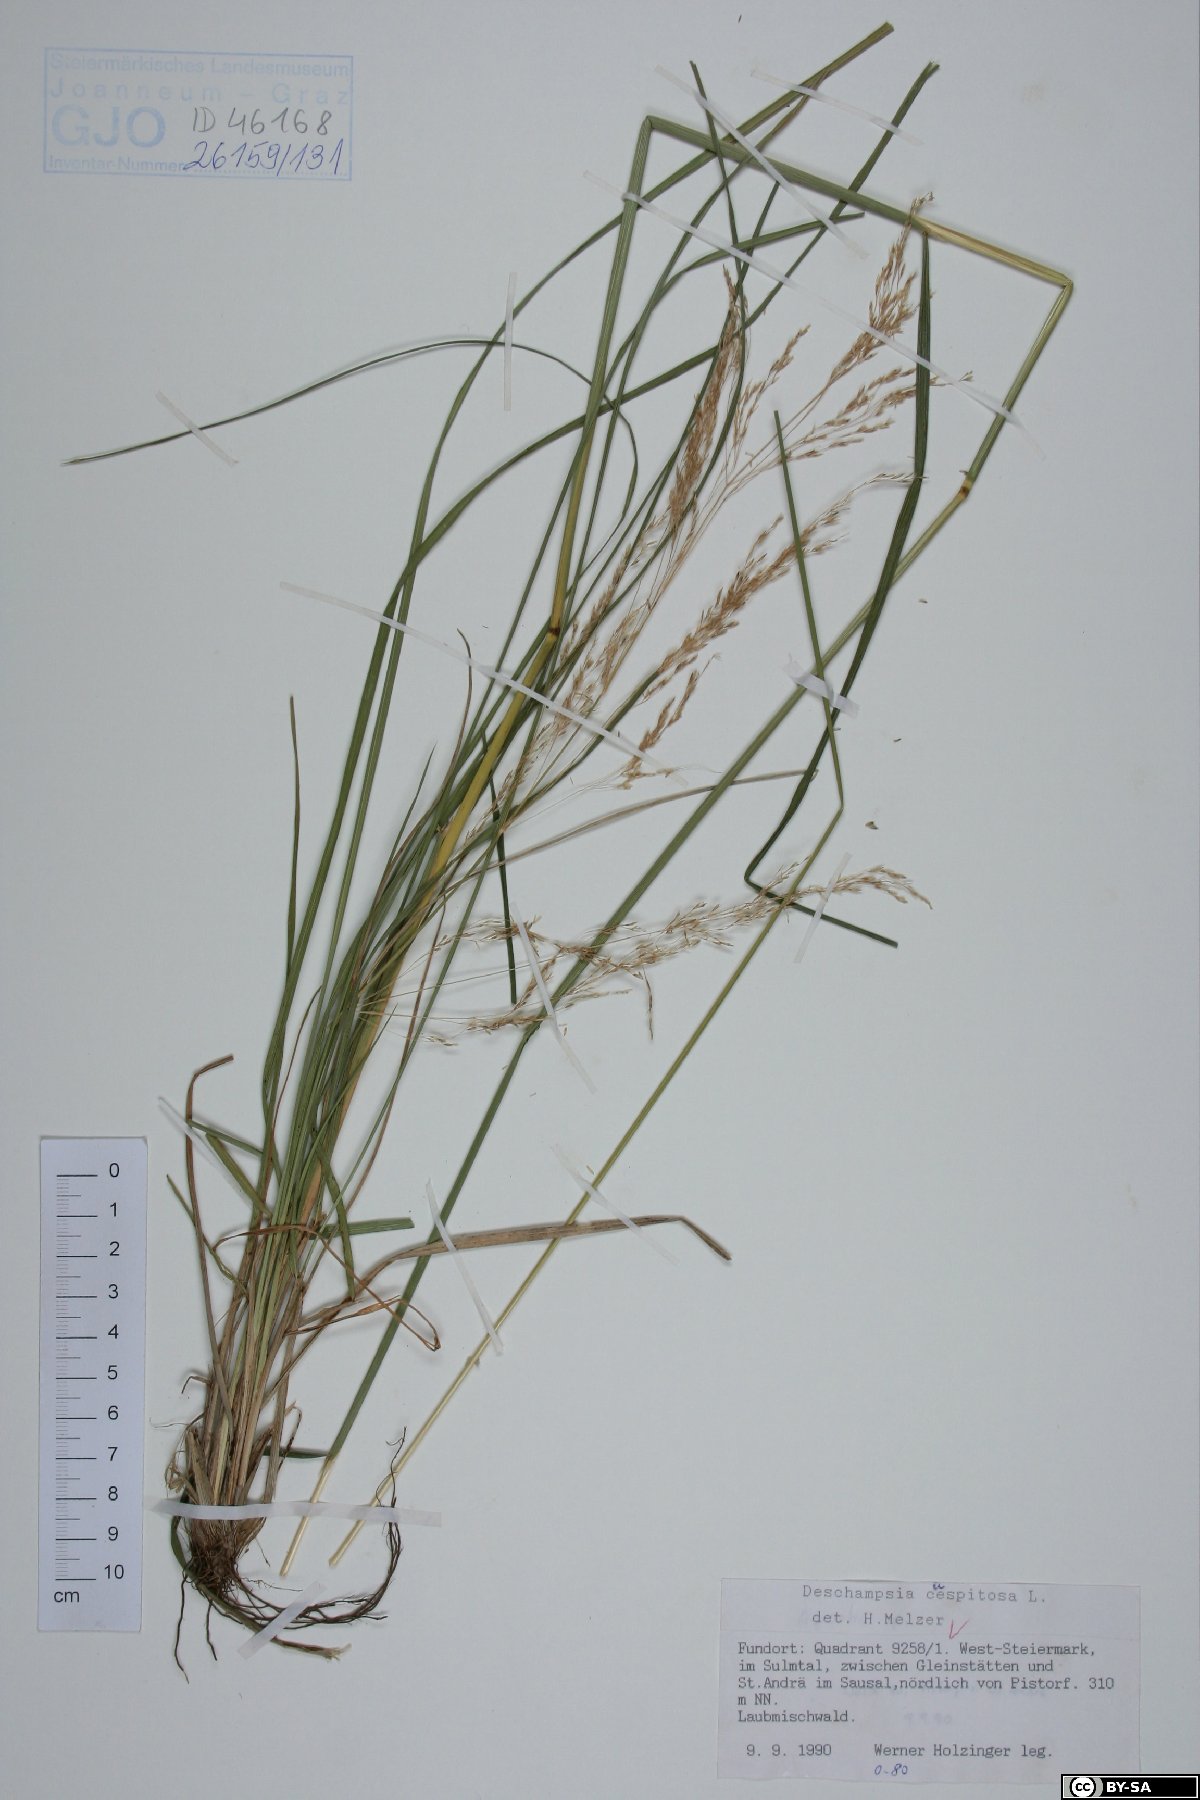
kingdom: Plantae
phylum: Tracheophyta
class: Liliopsida
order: Poales
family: Poaceae
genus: Deschampsia
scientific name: Deschampsia cespitosa
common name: Tufted hair-grass
